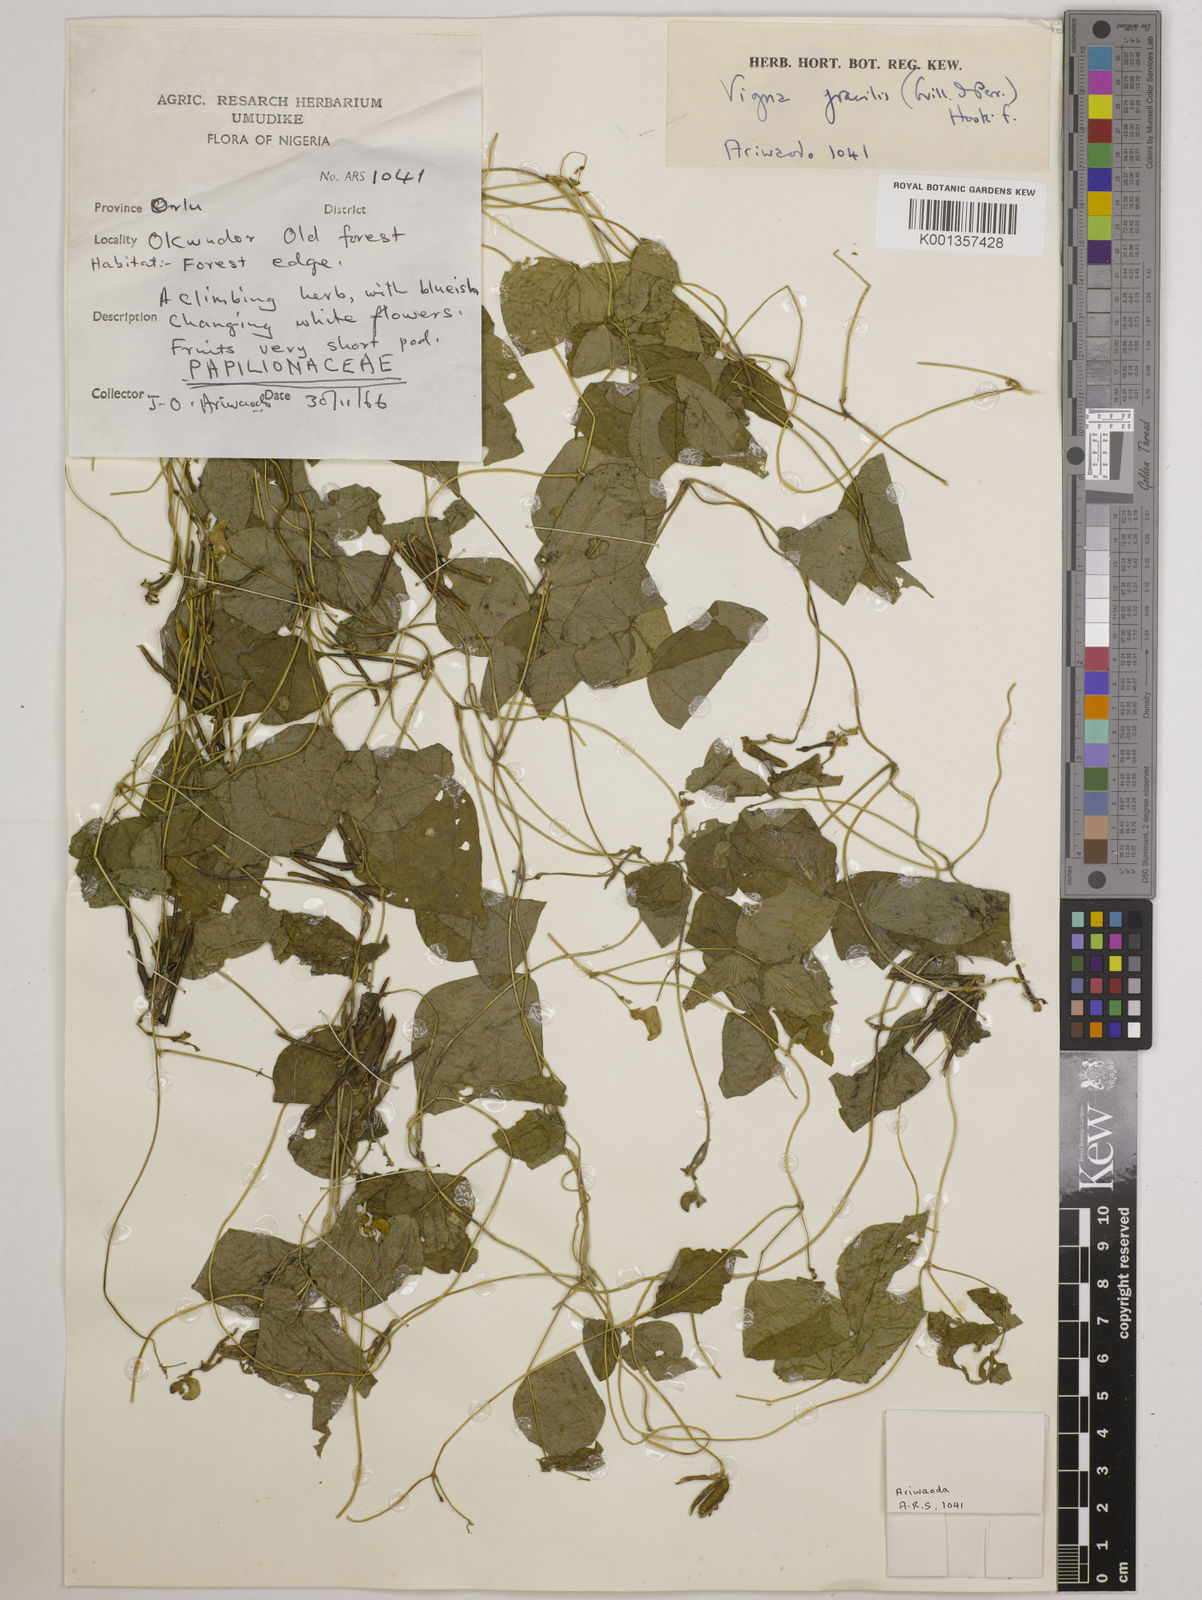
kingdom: Plantae
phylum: Tracheophyta
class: Magnoliopsida
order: Fabales
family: Fabaceae
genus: Vigna
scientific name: Vigna gracilis
